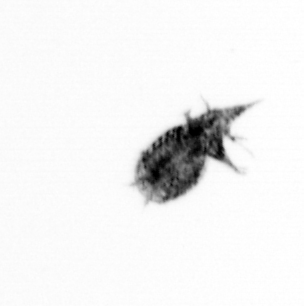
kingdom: Animalia
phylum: Arthropoda
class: Copepoda
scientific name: Copepoda
